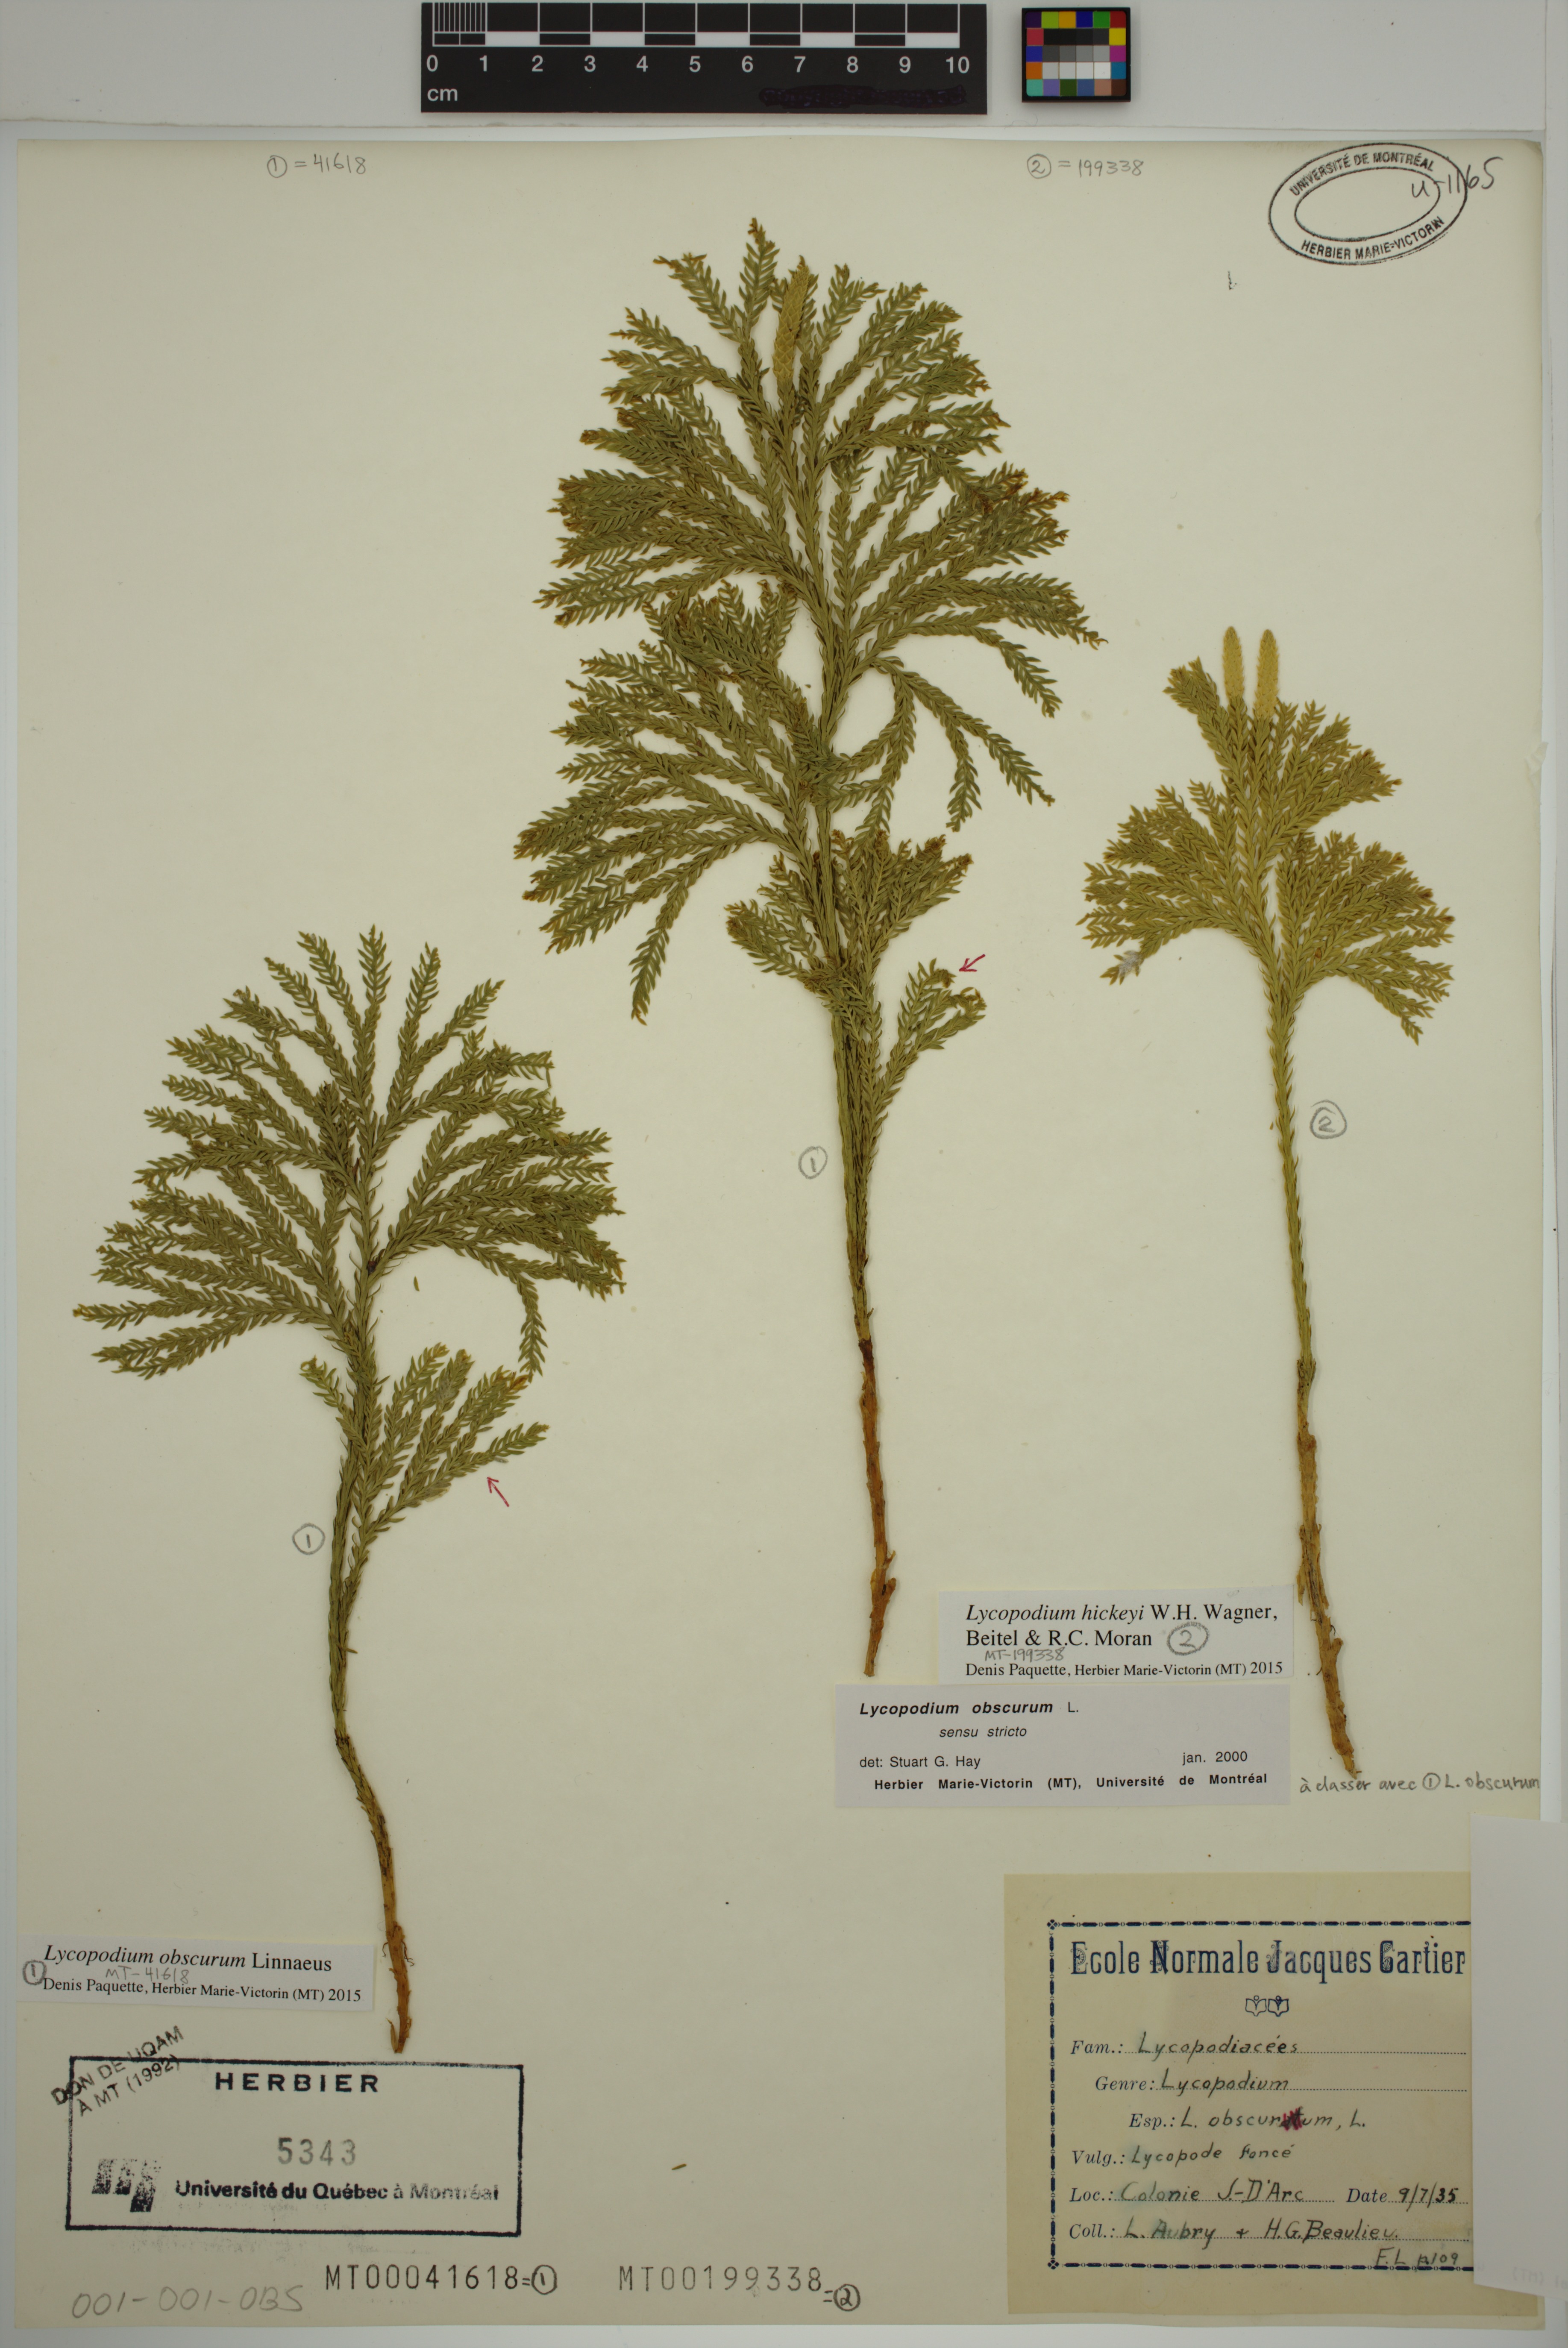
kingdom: Plantae
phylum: Tracheophyta
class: Lycopodiopsida
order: Lycopodiales
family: Lycopodiaceae
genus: Dendrolycopodium
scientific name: Dendrolycopodium hickeyi
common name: Hickey's clubmoss
